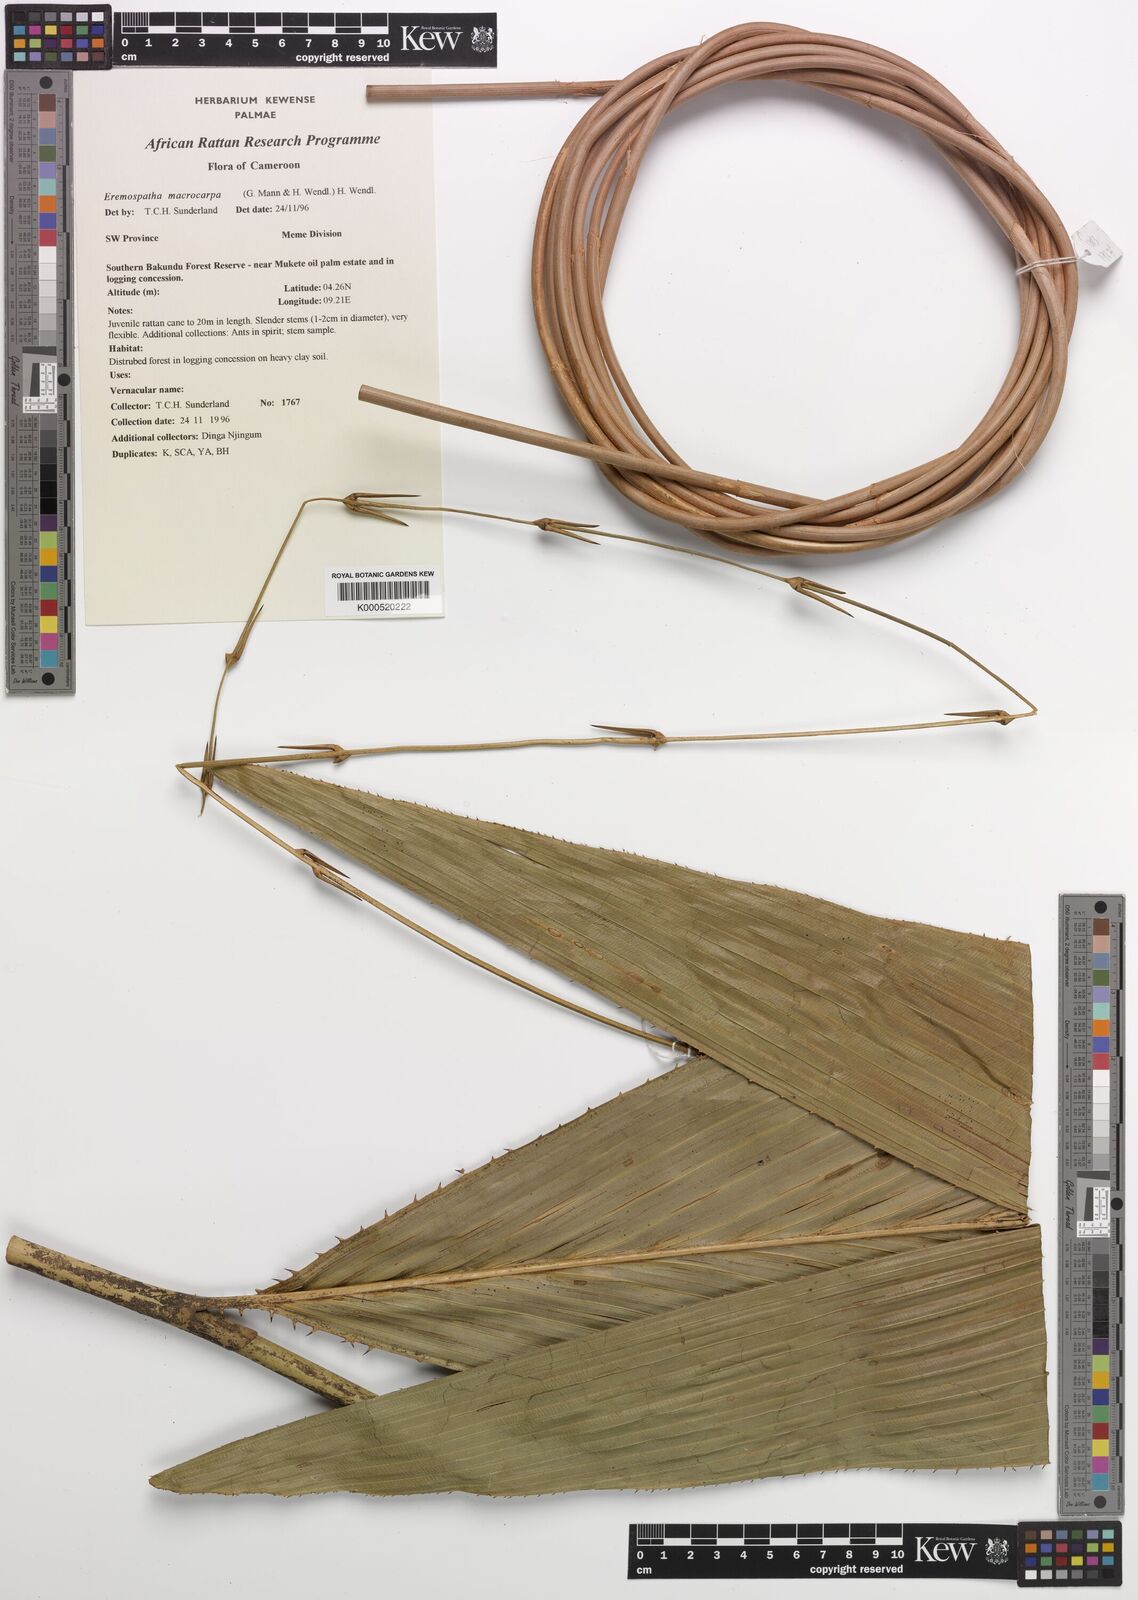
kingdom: Plantae
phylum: Tracheophyta
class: Liliopsida
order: Arecales
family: Arecaceae
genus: Eremospatha
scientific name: Eremospatha
